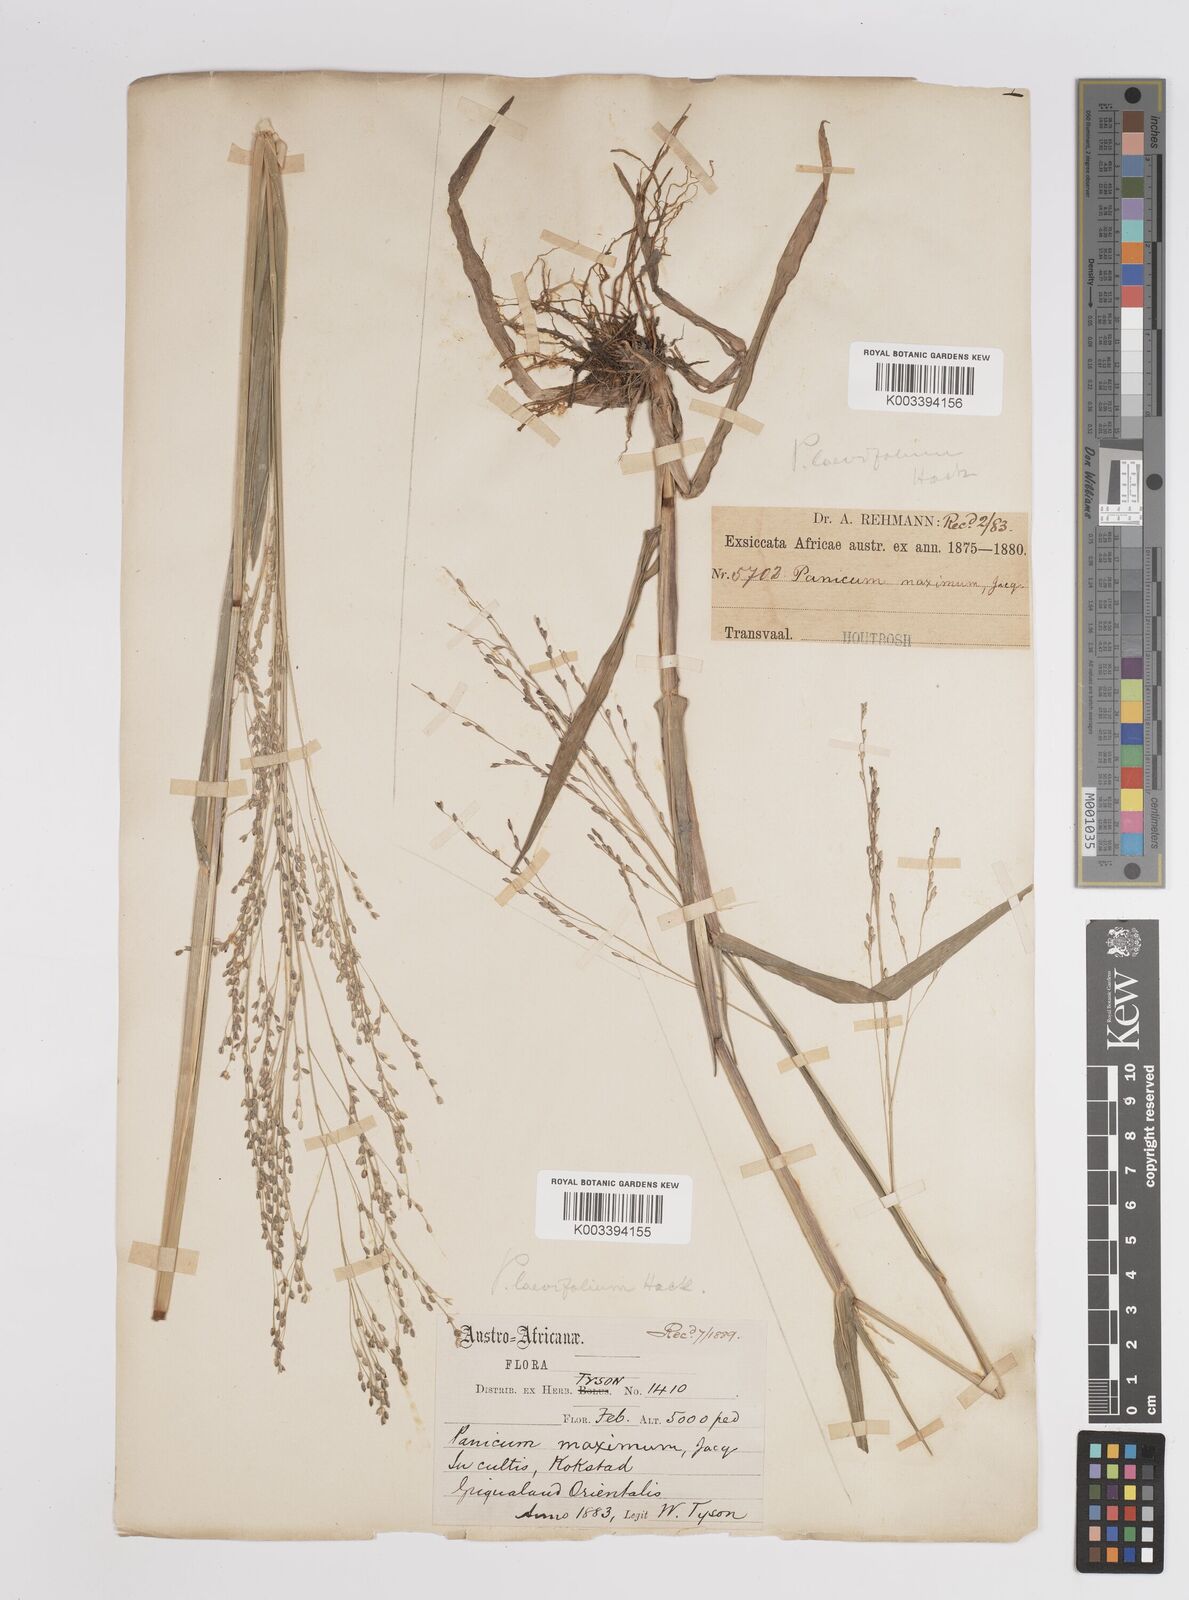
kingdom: Plantae
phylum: Tracheophyta
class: Liliopsida
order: Poales
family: Poaceae
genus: Panicum
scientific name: Panicum schinzii
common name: Sweet grass
